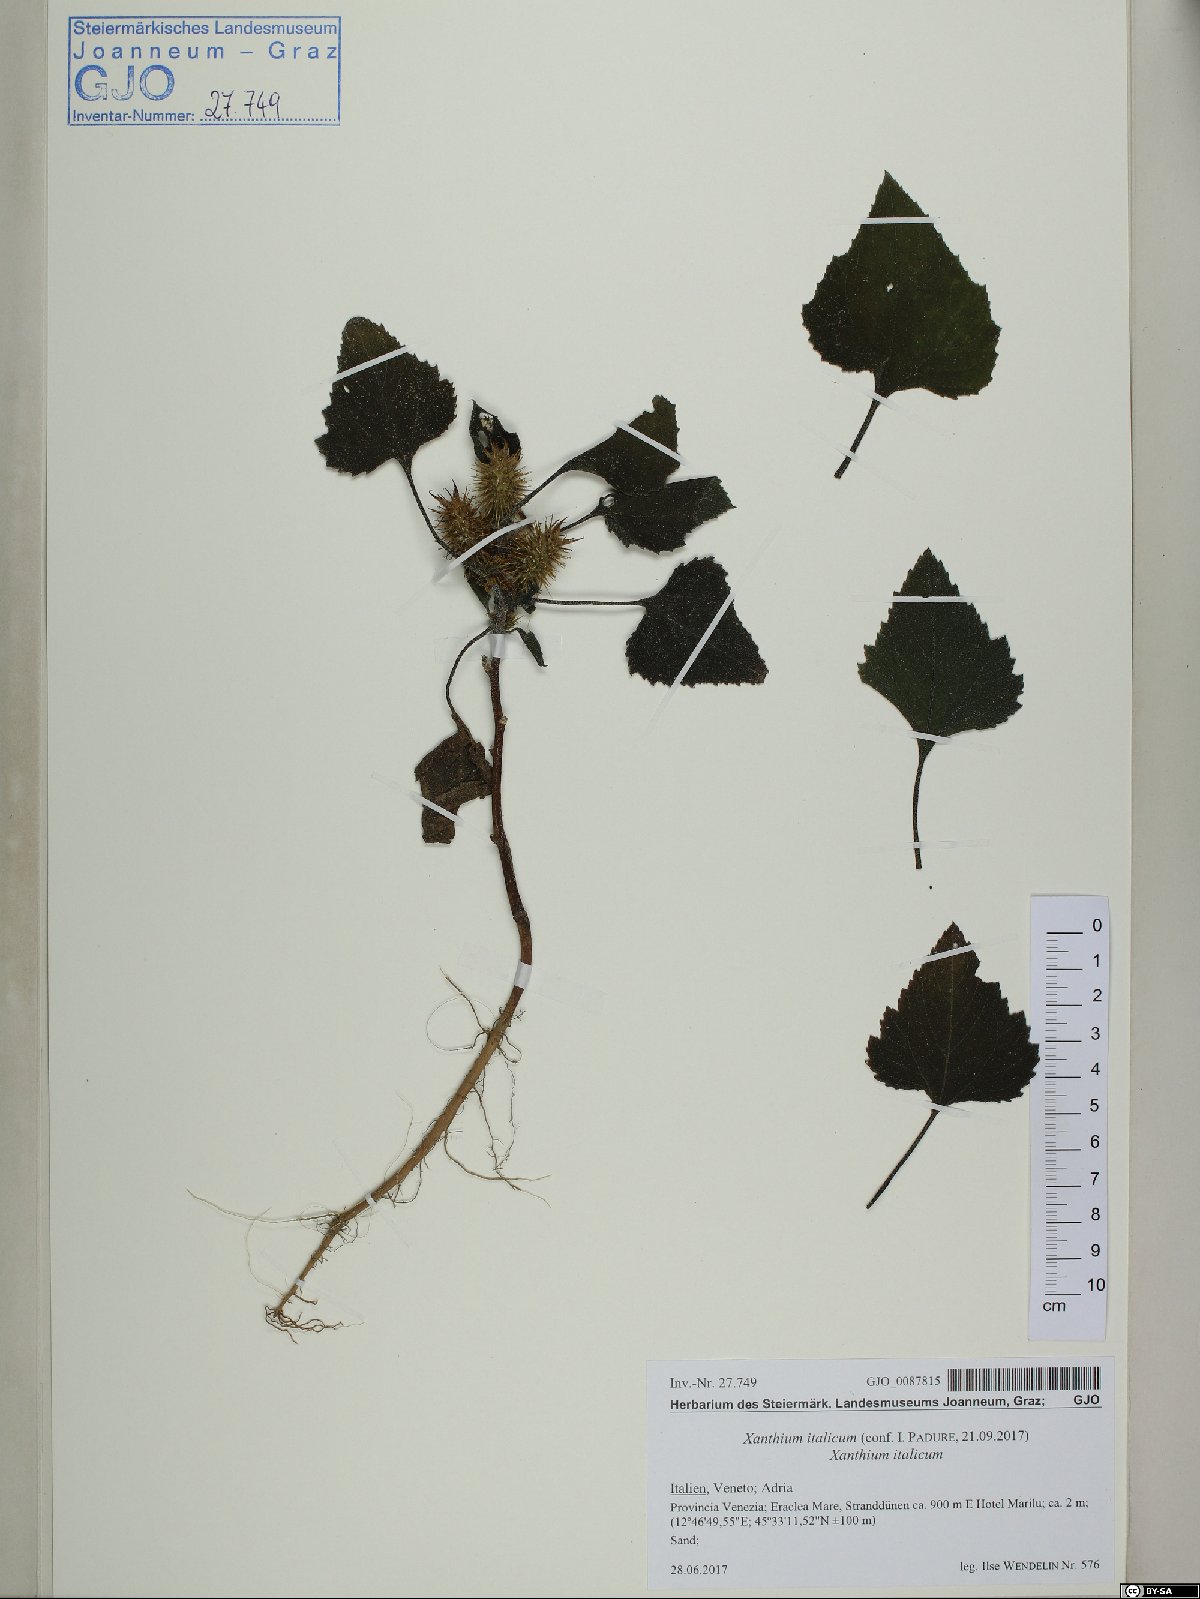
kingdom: Plantae
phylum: Tracheophyta
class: Magnoliopsida
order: Asterales
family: Asteraceae
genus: Xanthium
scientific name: Xanthium orientale
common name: Californian burr
